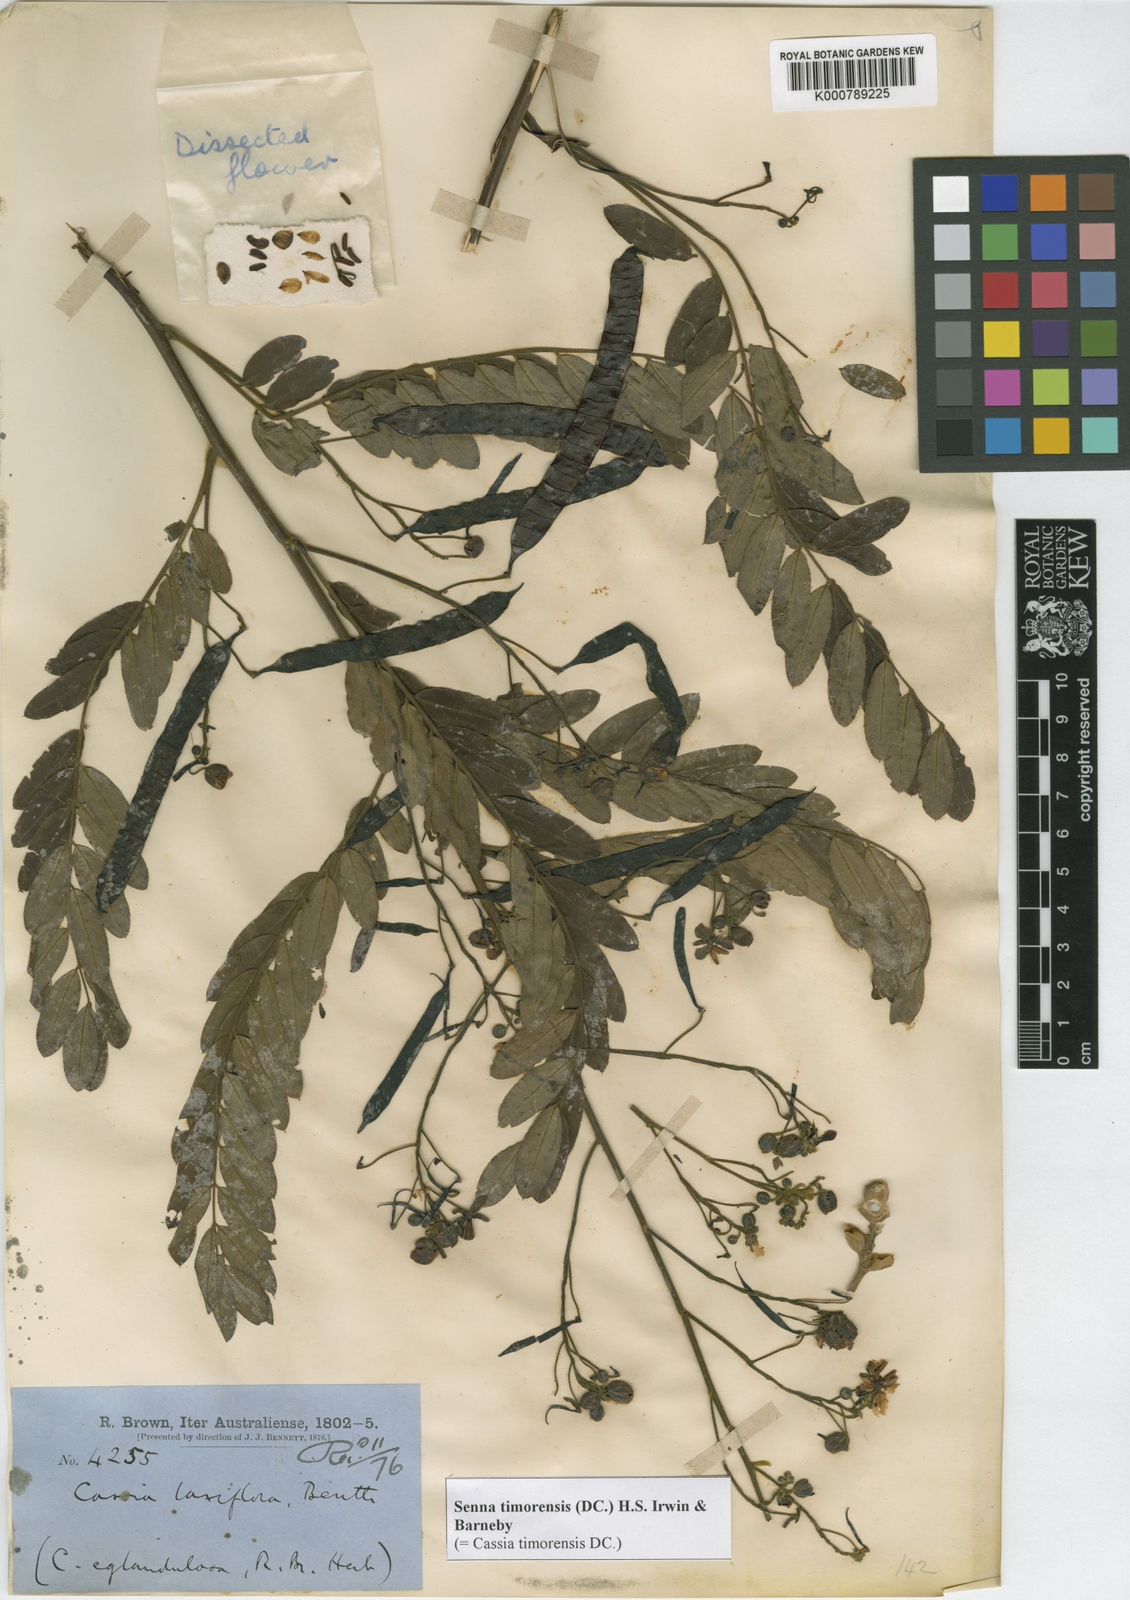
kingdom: Plantae
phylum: Tracheophyta
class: Magnoliopsida
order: Fabales
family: Fabaceae
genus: Senna
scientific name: Senna timoriensis
